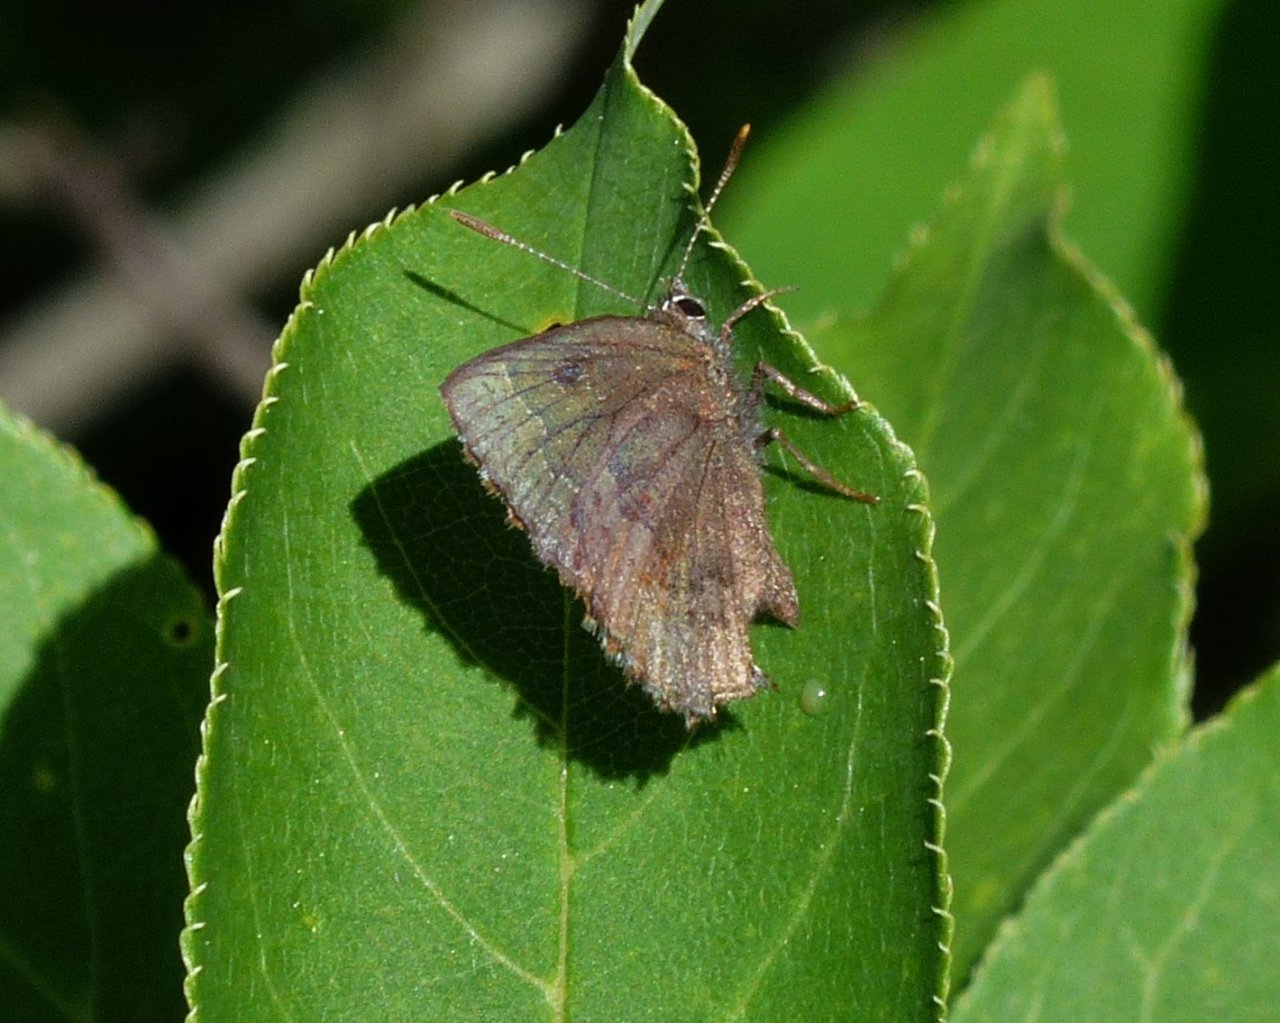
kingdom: Animalia
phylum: Arthropoda
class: Insecta
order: Lepidoptera
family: Lycaenidae
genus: Callophrys
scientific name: Callophrys polios
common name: Hoary Elfin
